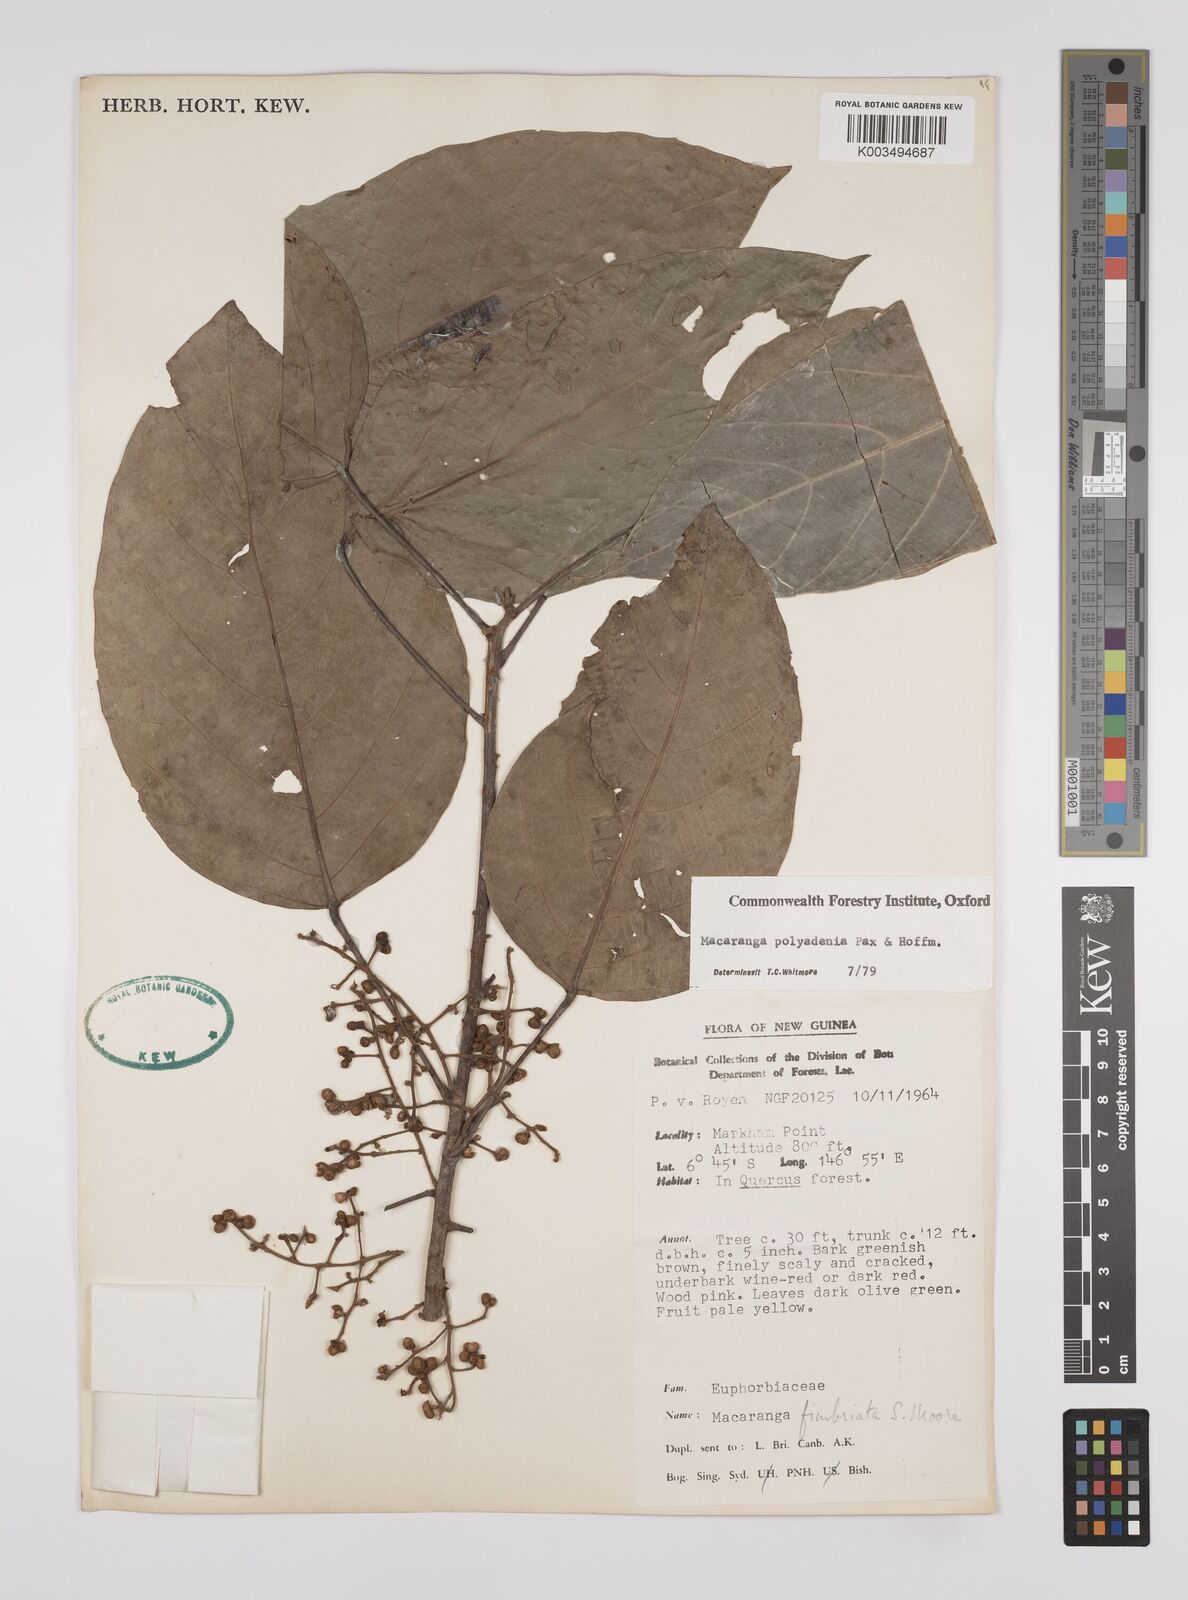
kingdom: Plantae
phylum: Tracheophyta
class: Magnoliopsida
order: Malpighiales
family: Euphorbiaceae
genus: Macaranga
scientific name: Macaranga polyadenia
